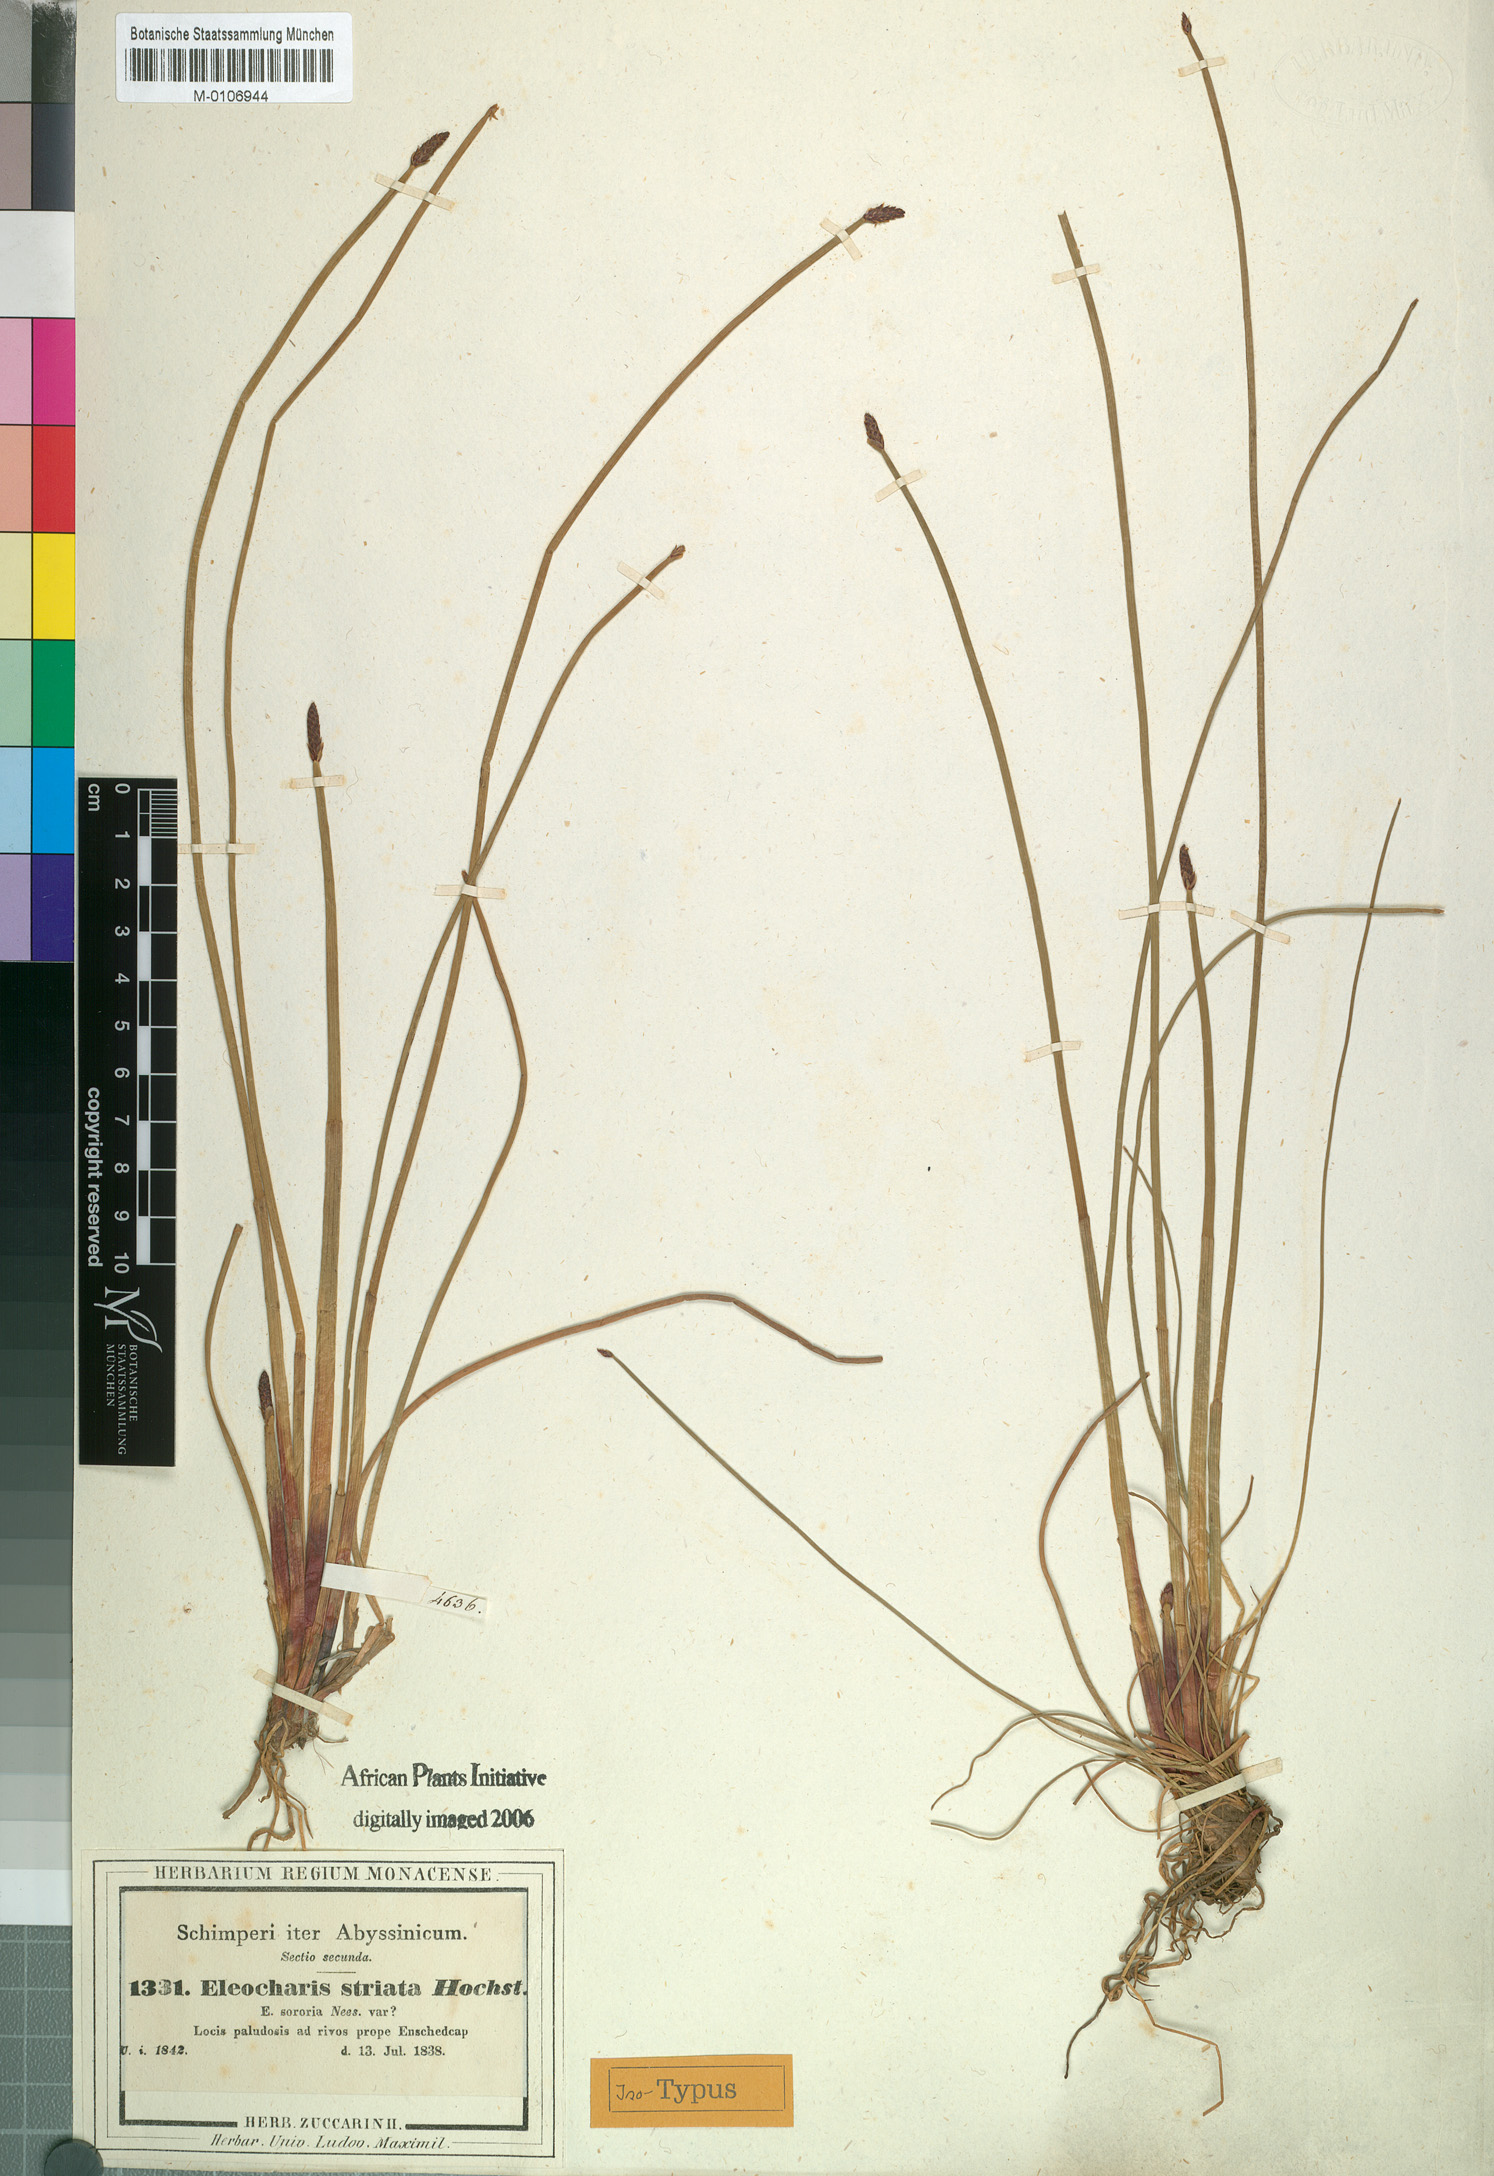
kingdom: Plantae
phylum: Tracheophyta
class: Liliopsida
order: Poales
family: Cyperaceae
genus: Eleocharis
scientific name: Eleocharis marginulata
